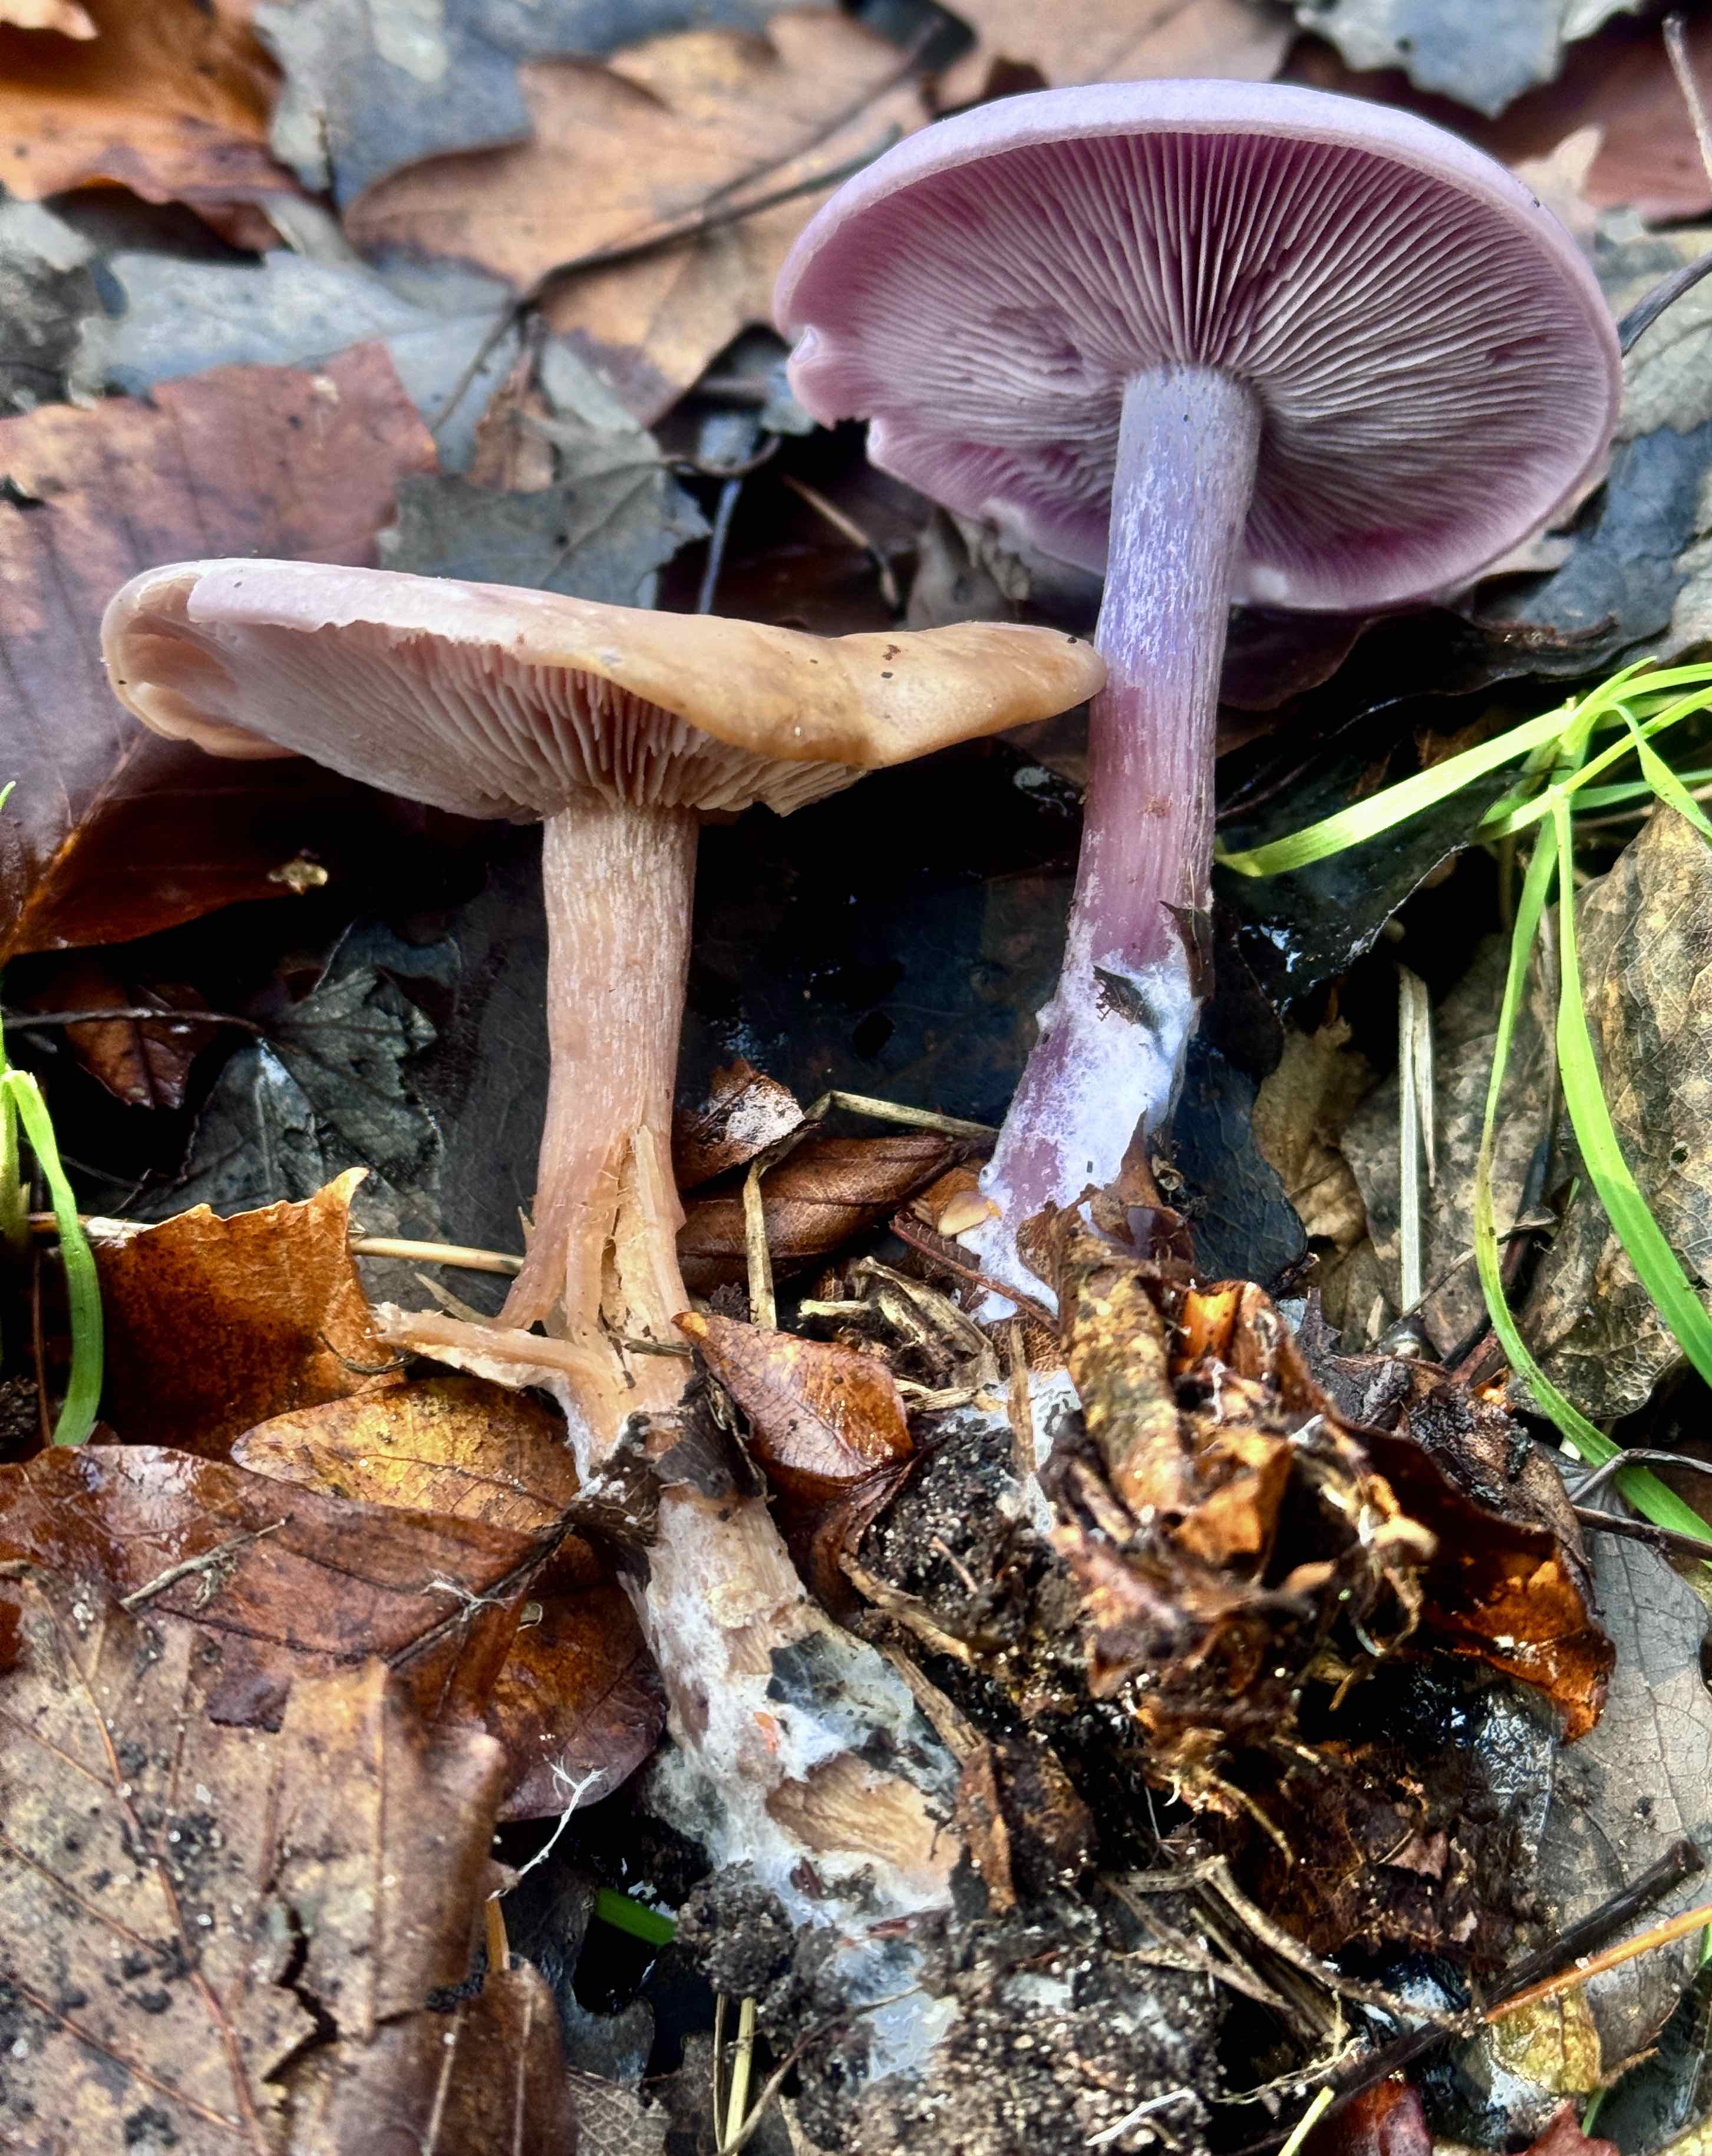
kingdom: Fungi
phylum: Basidiomycota
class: Agaricomycetes
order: Agaricales
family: Tricholomataceae
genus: Lepista
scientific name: Lepista nuda
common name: violet hekseringshat
